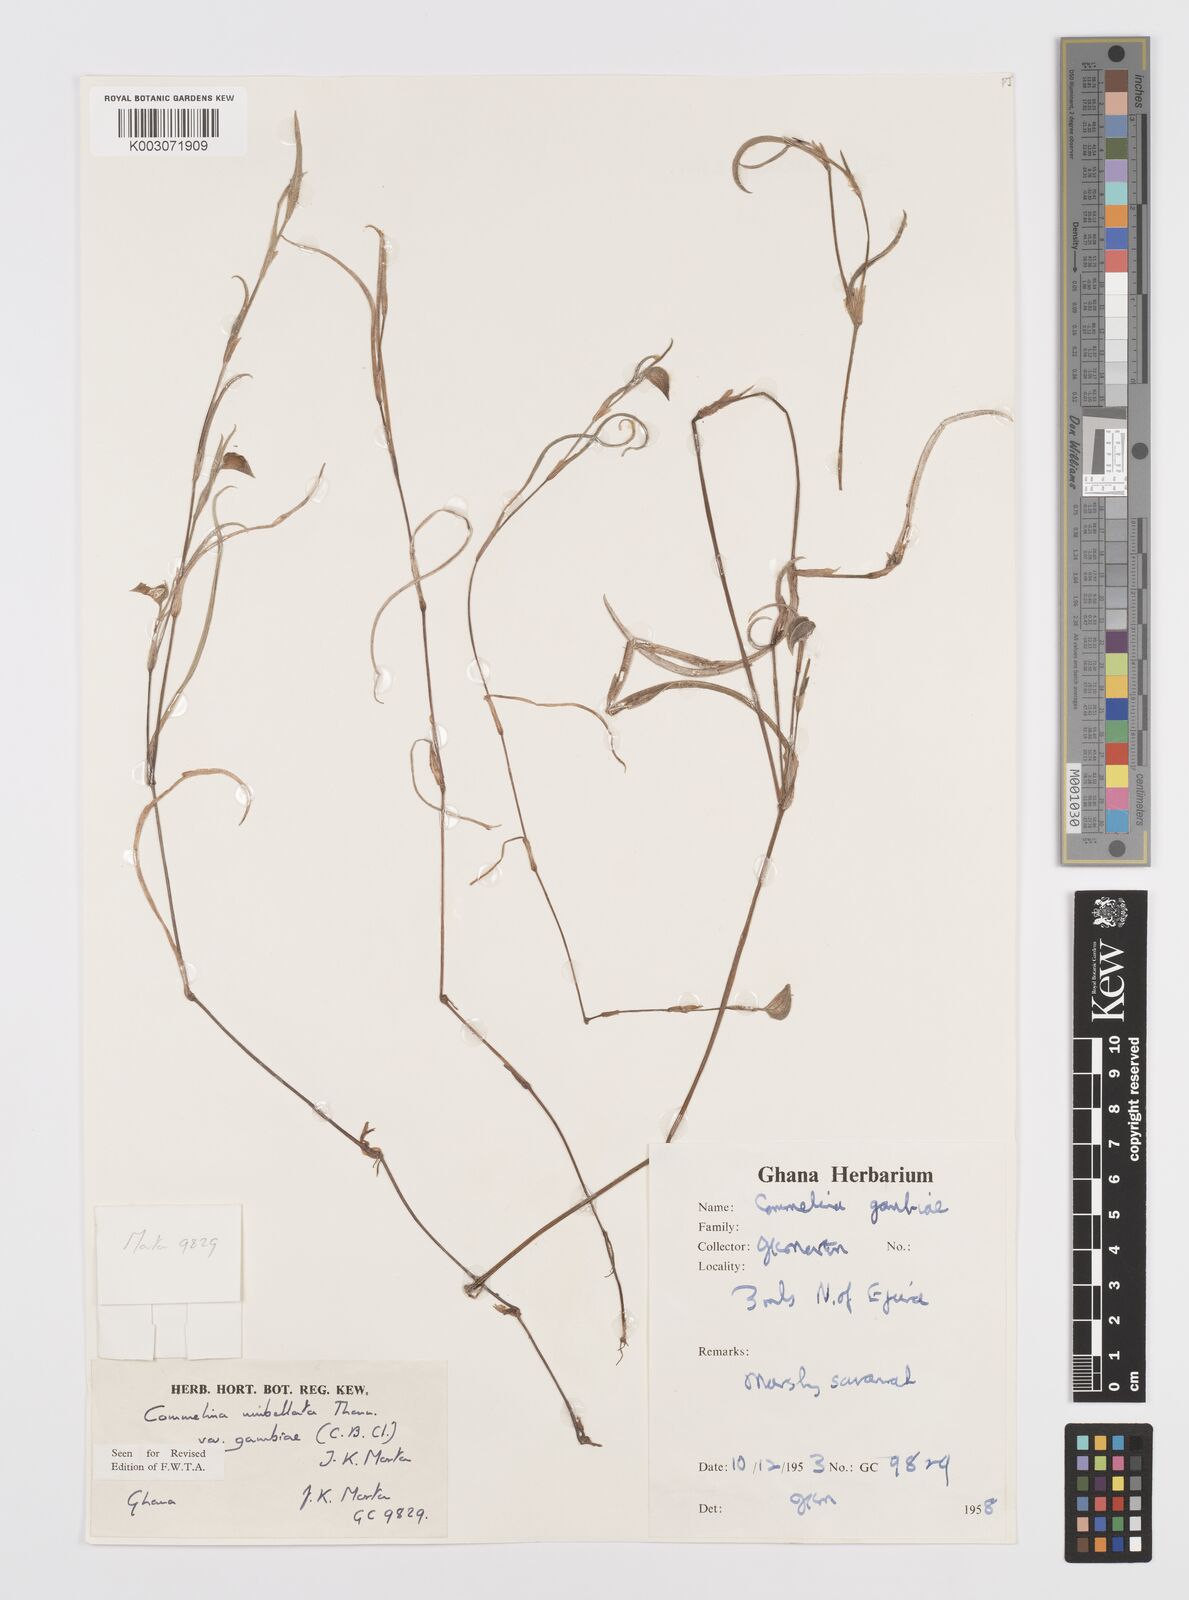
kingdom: Plantae
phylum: Tracheophyta
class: Liliopsida
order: Commelinales
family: Commelinaceae
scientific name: Commelinaceae
